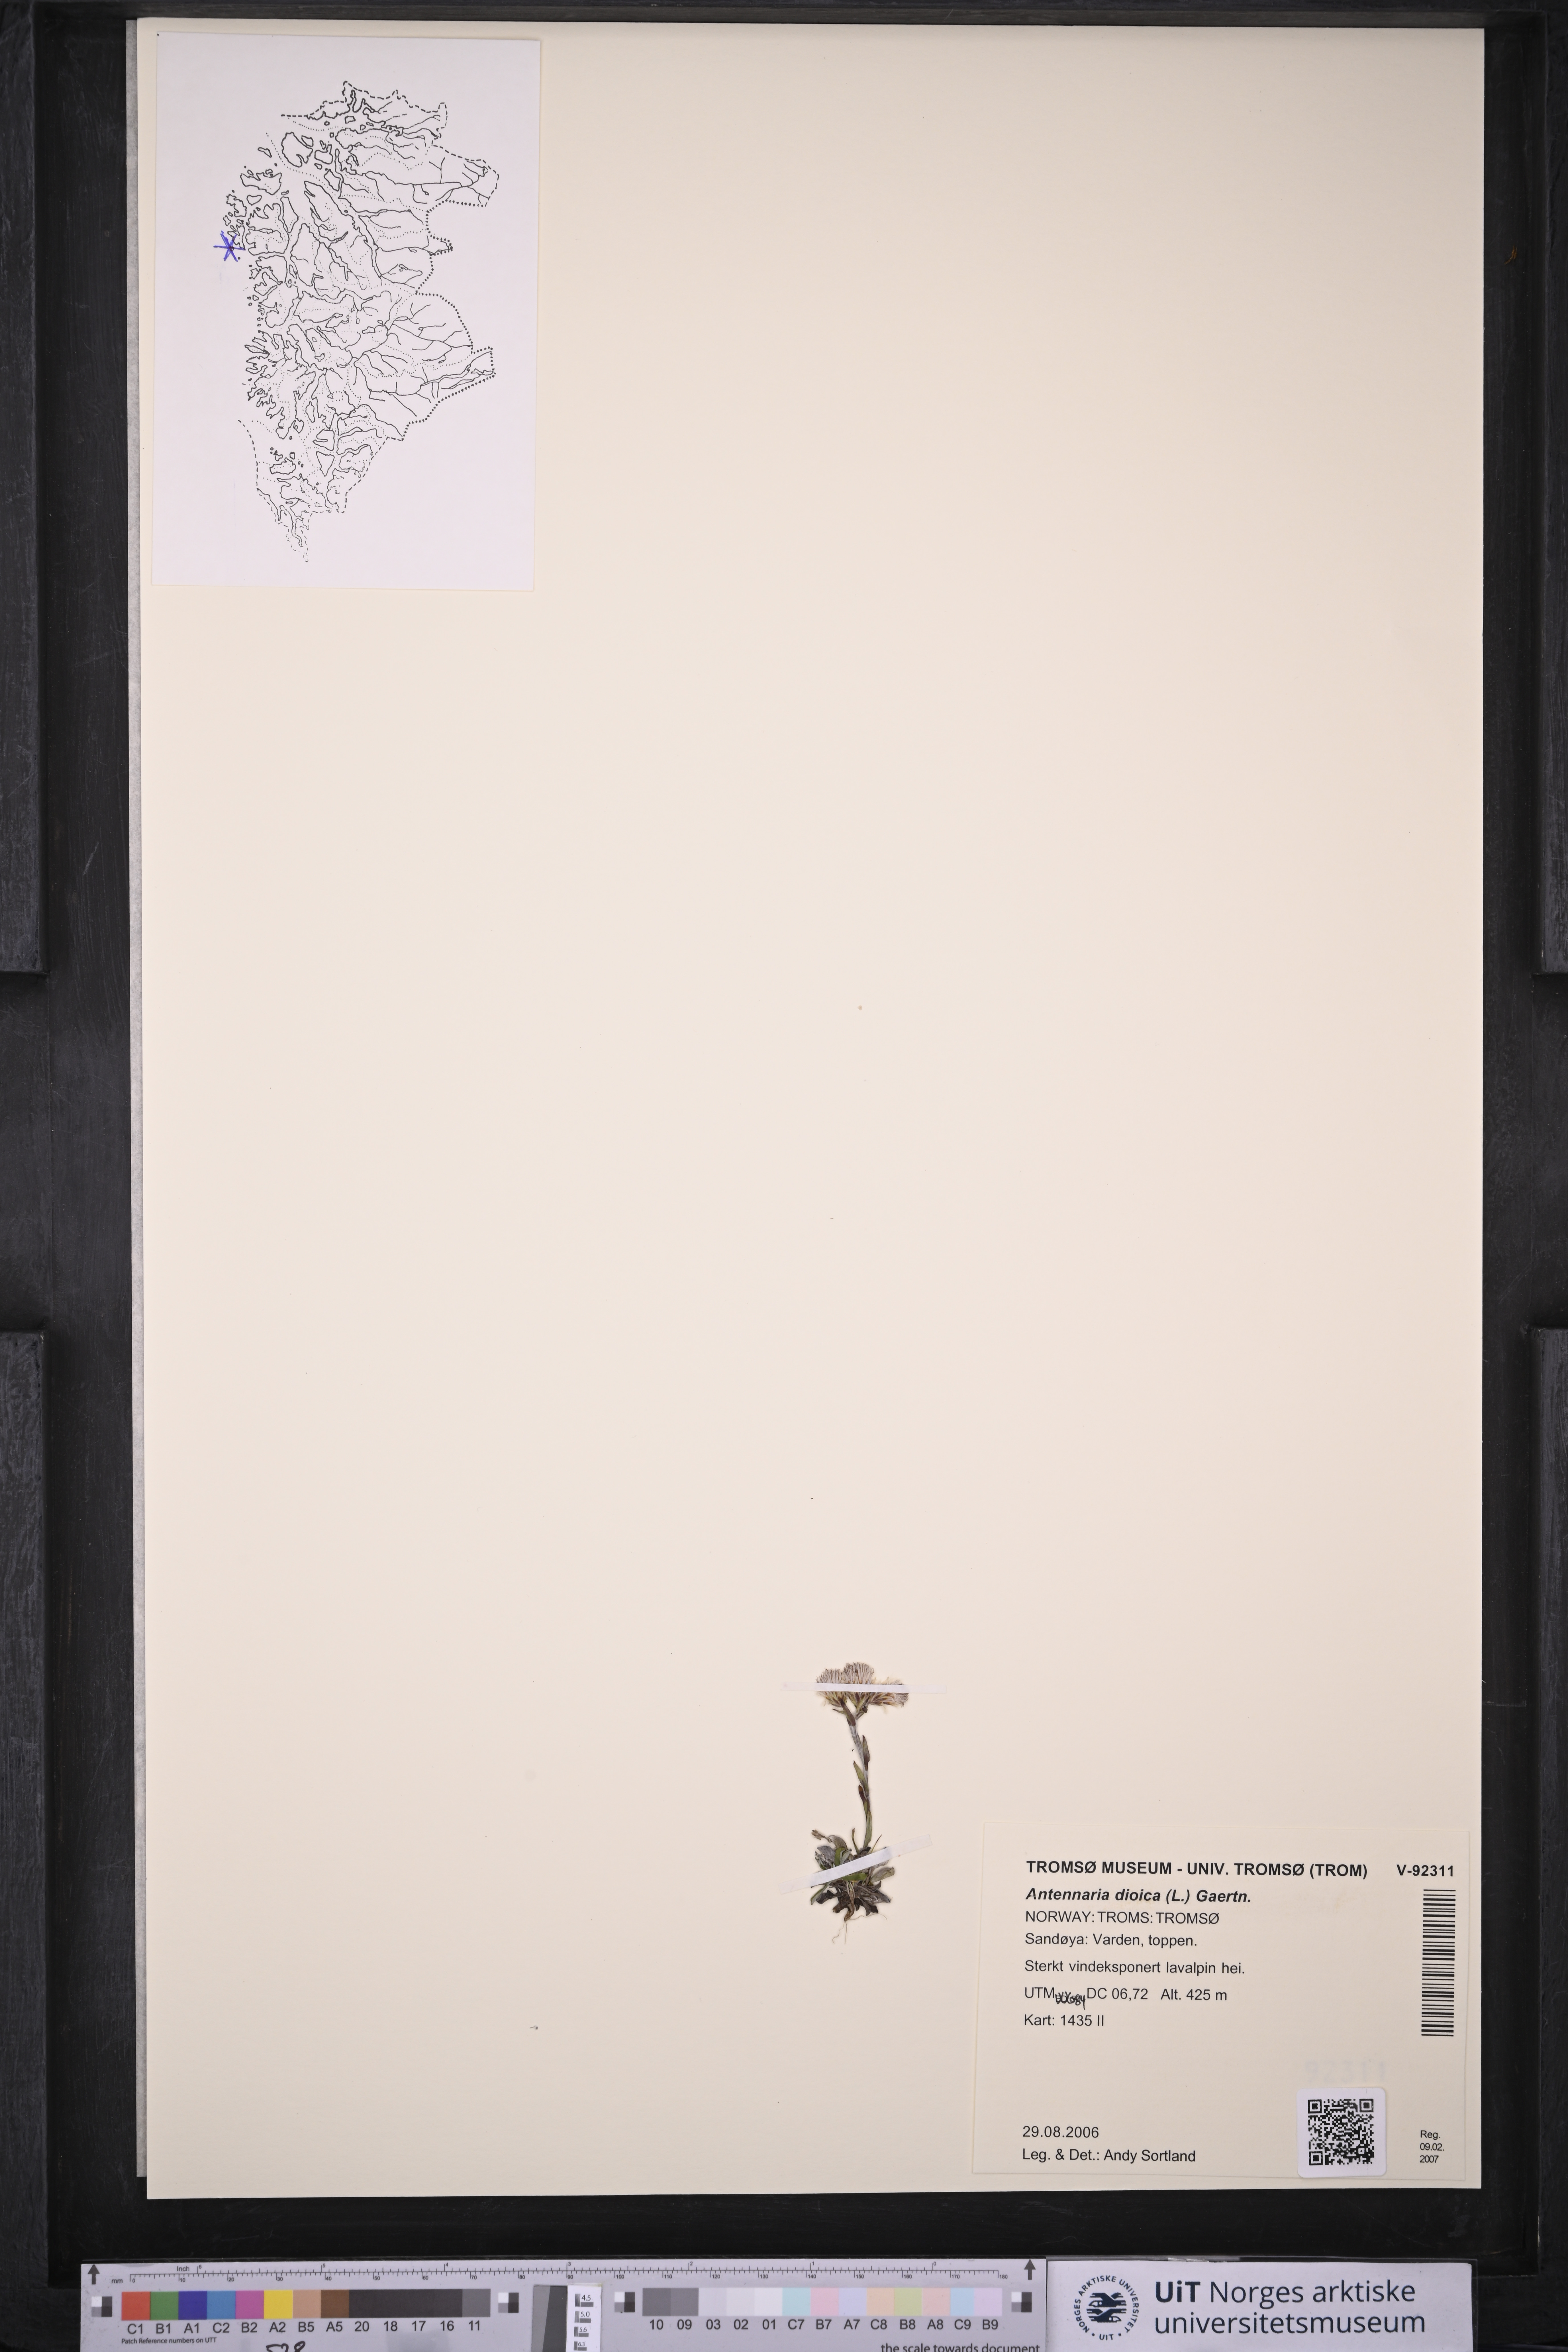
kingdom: Plantae
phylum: Tracheophyta
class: Magnoliopsida
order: Asterales
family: Asteraceae
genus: Antennaria
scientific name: Antennaria dioica
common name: Mountain everlasting
